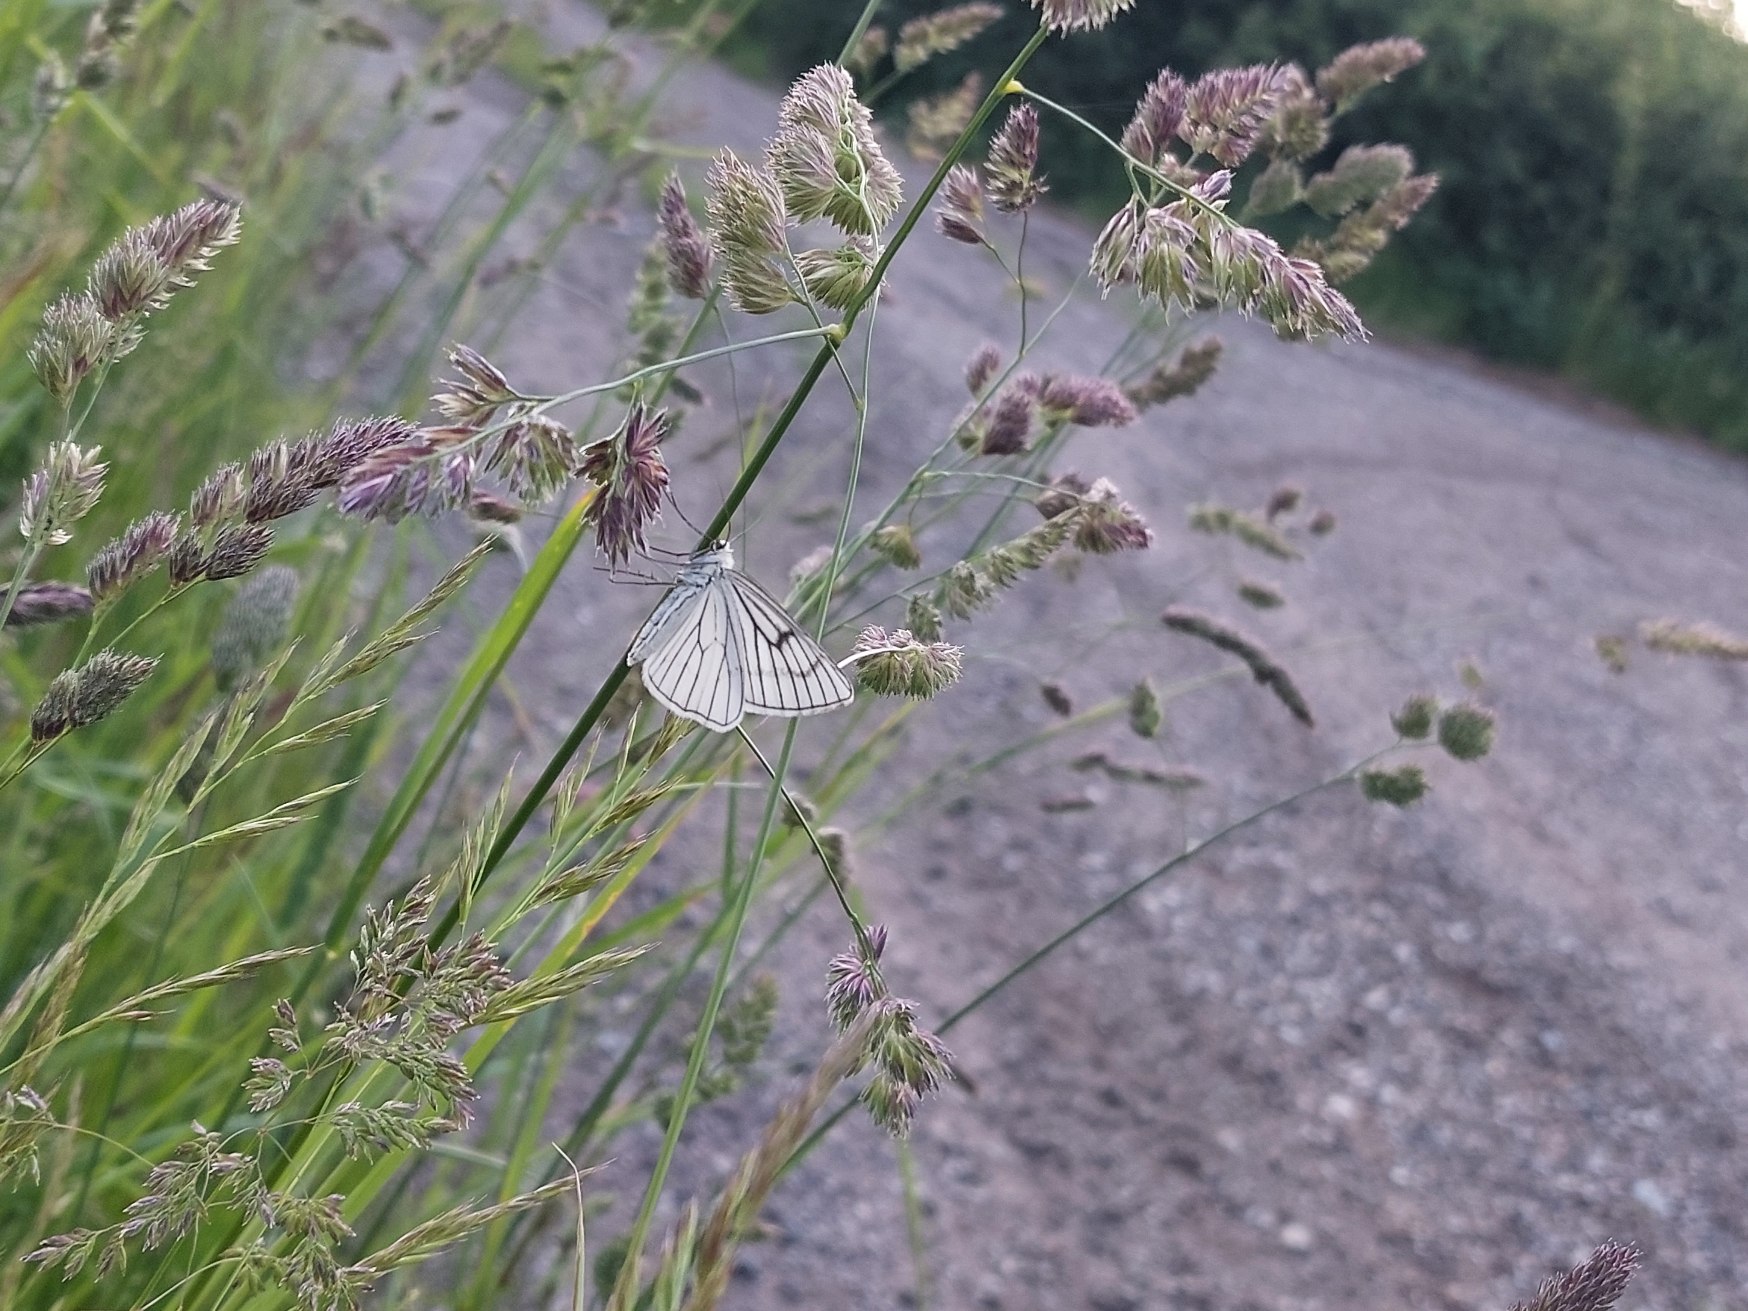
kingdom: Animalia
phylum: Arthropoda
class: Insecta
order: Lepidoptera
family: Geometridae
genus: Siona
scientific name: Siona lineata
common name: Hvidvingemåler
